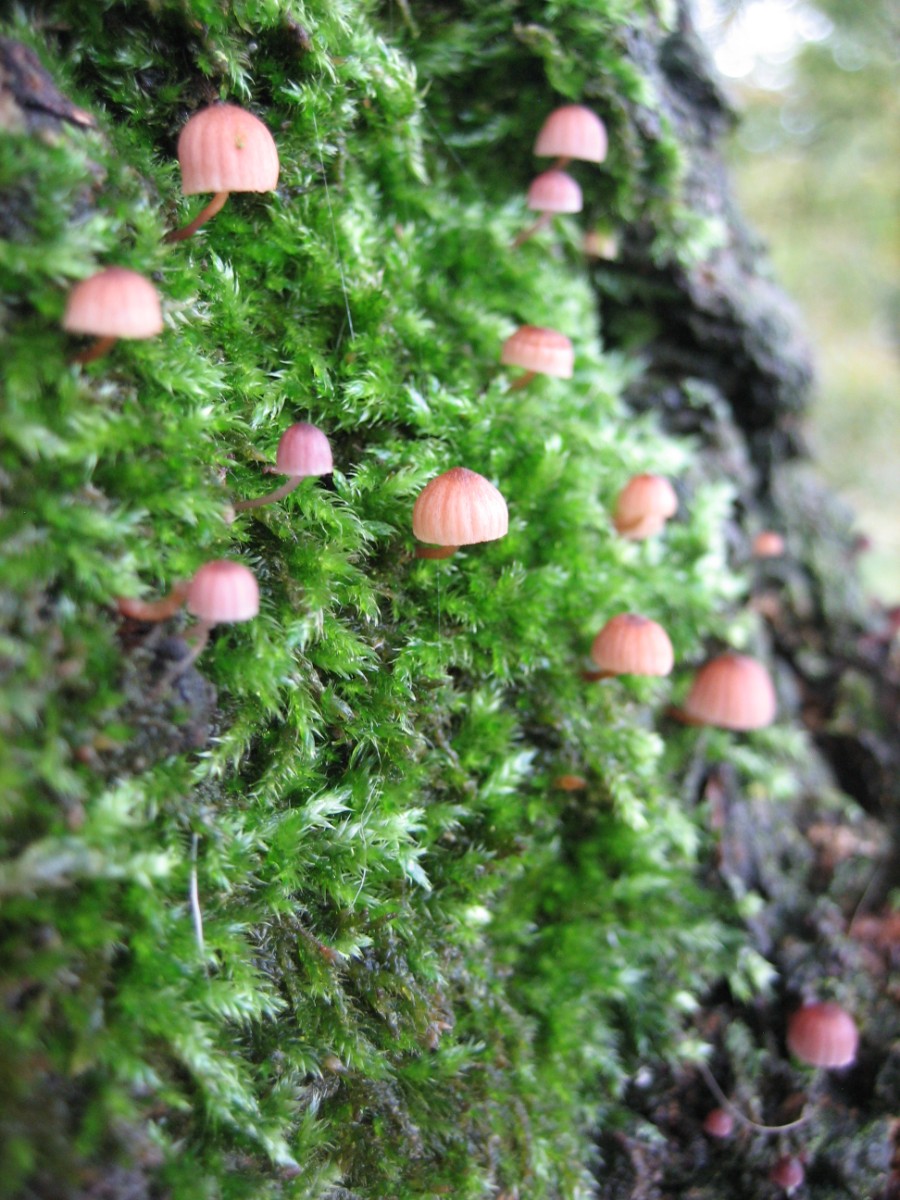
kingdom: Fungi
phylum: Basidiomycota
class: Agaricomycetes
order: Agaricales
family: Mycenaceae
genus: Mycena
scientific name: Mycena meliigena
